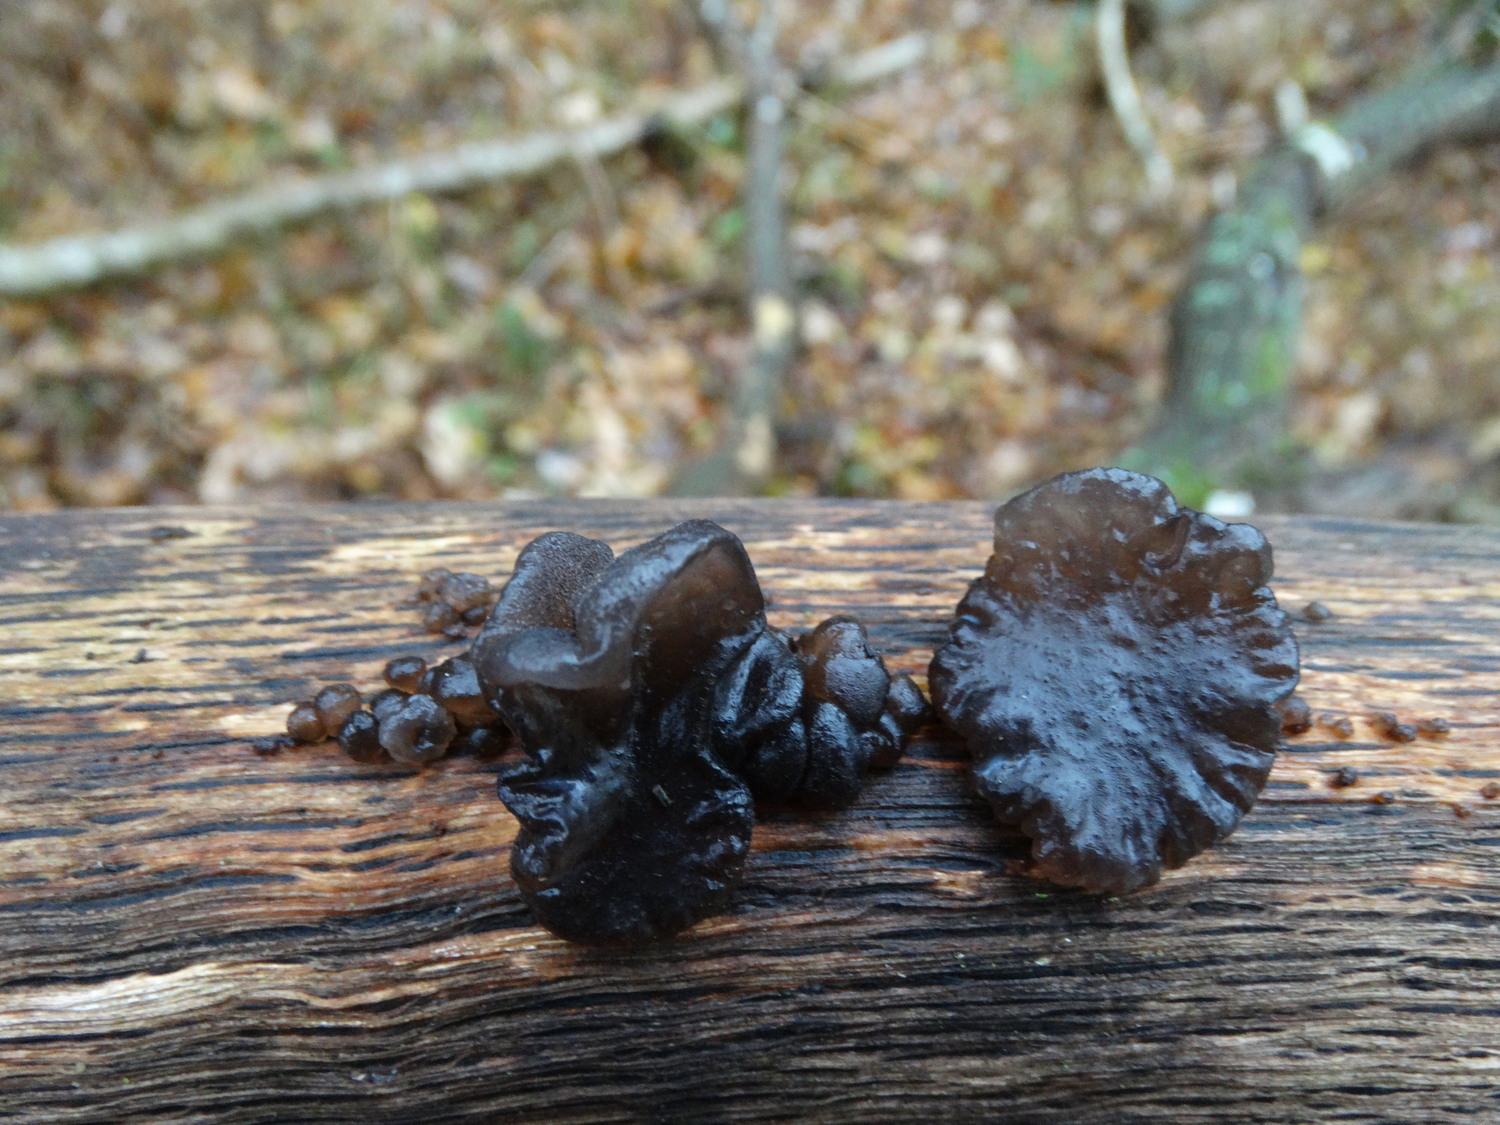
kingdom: Fungi
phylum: Basidiomycota
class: Agaricomycetes
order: Auriculariales
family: Auriculariaceae
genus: Exidia
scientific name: Exidia glandulosa
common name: ege-bævretop
